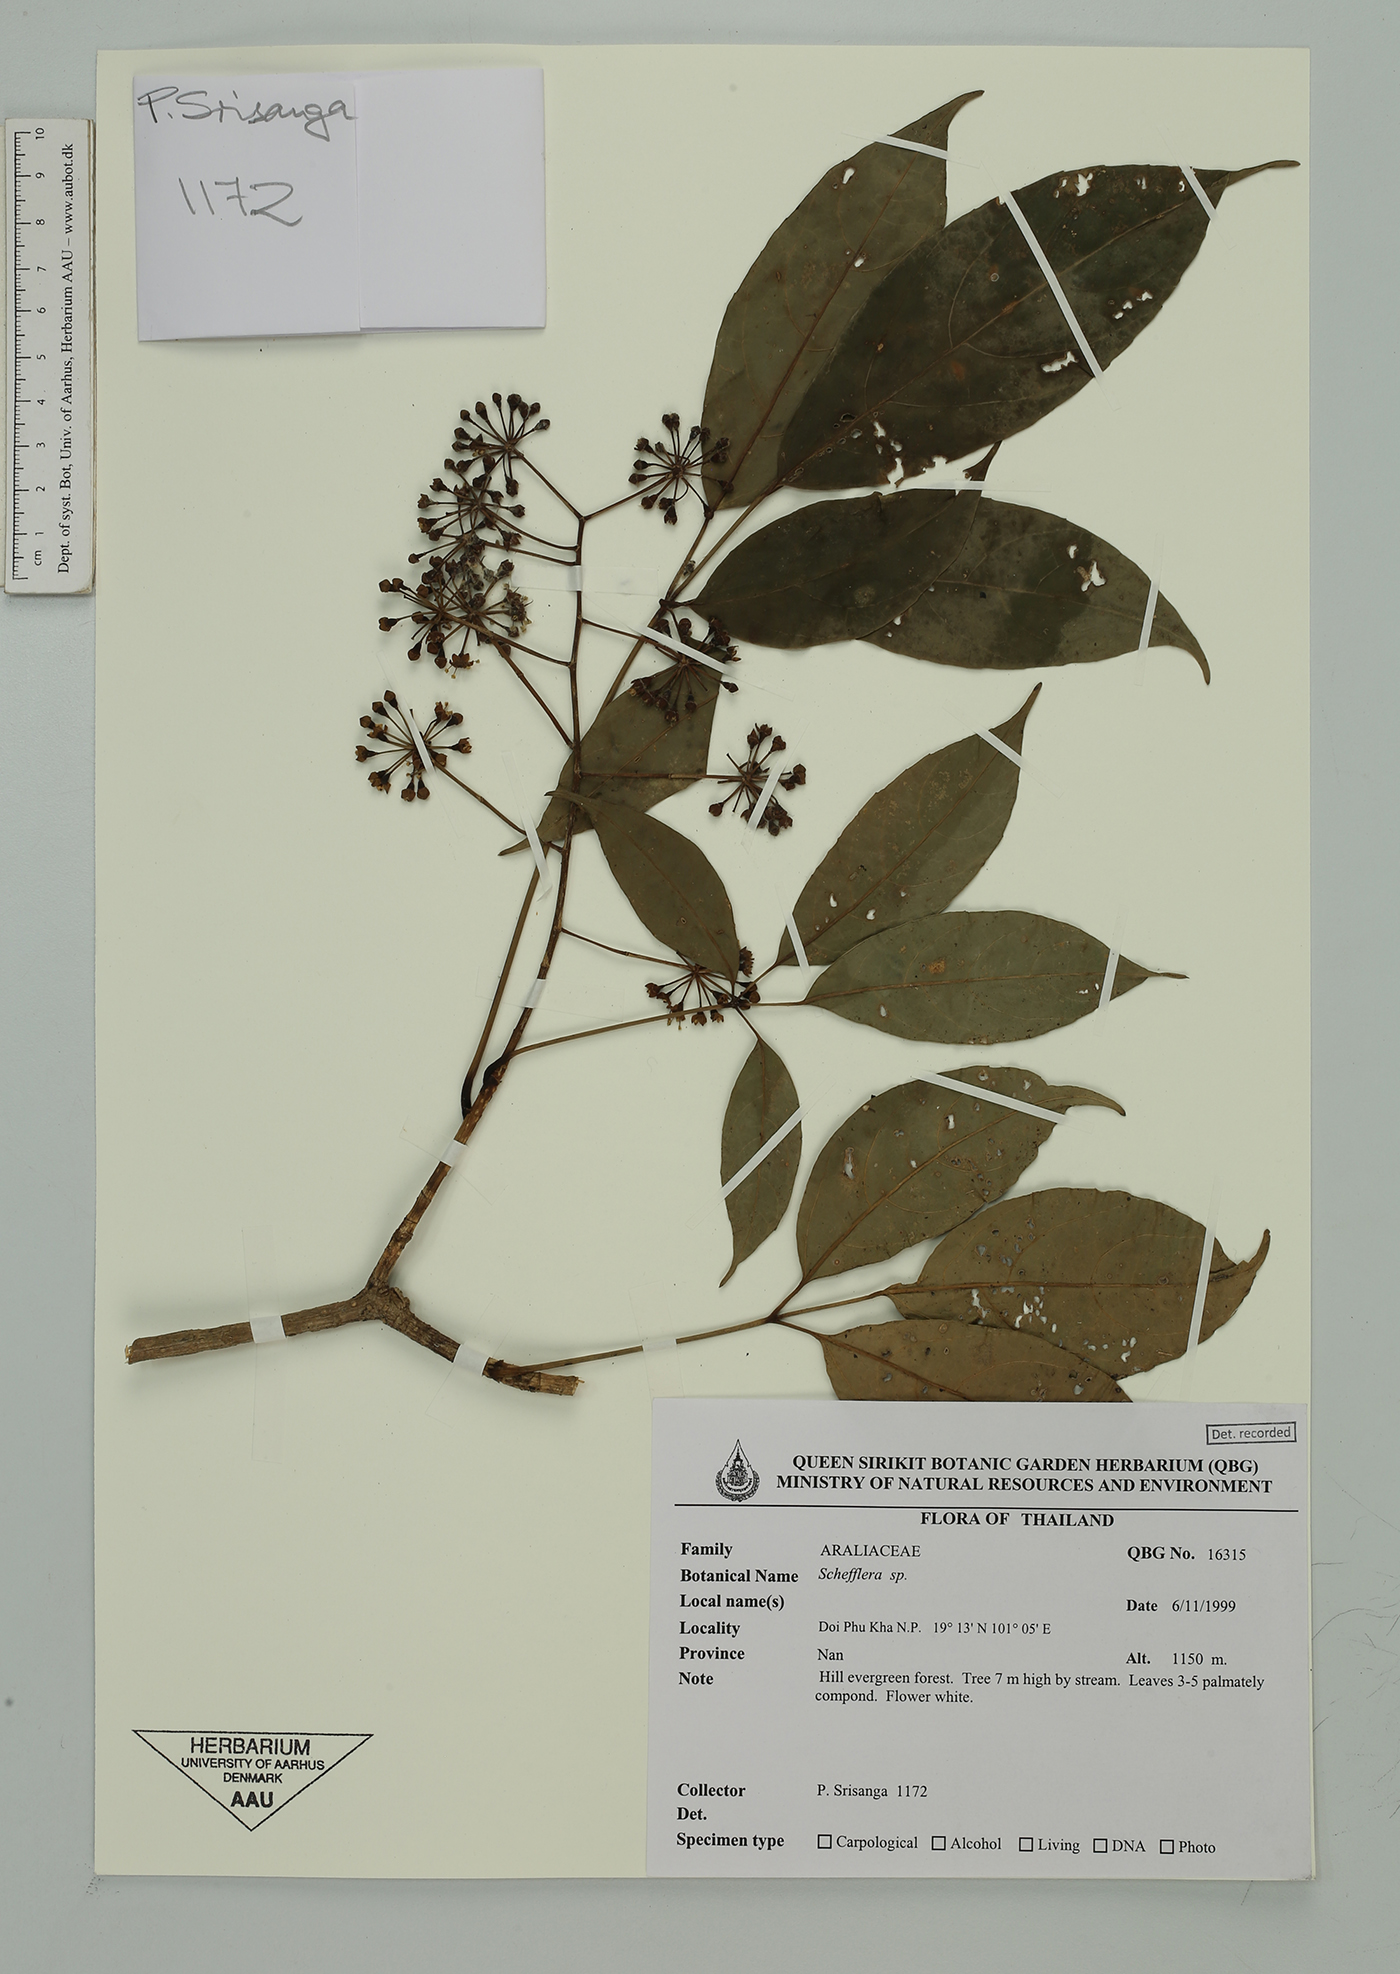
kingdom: Plantae
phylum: Tracheophyta
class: Magnoliopsida
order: Apiales
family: Araliaceae
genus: Schefflera
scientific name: Schefflera
